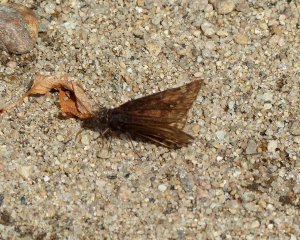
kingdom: Animalia
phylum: Arthropoda
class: Insecta
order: Lepidoptera
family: Hesperiidae
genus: Gesta
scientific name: Gesta
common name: Juvenal's Duskywing
